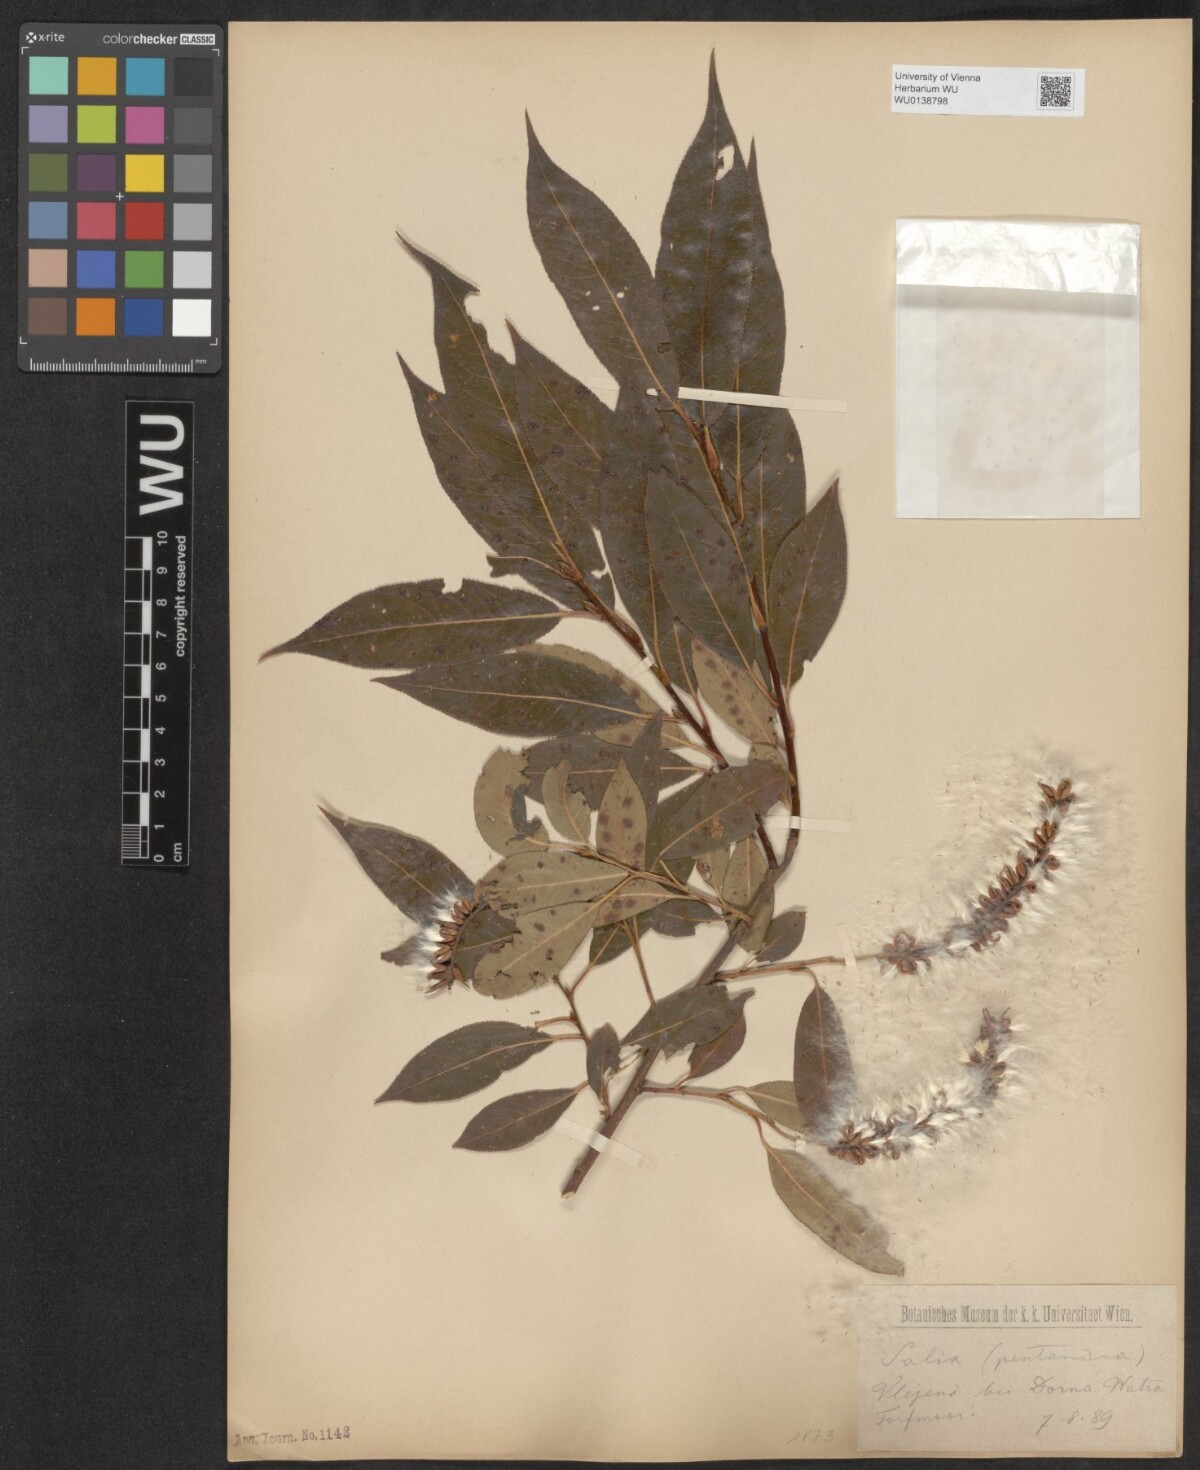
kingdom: Plantae
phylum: Tracheophyta
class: Magnoliopsida
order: Malpighiales
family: Salicaceae
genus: Salix
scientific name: Salix pentandra
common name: Bay willow
